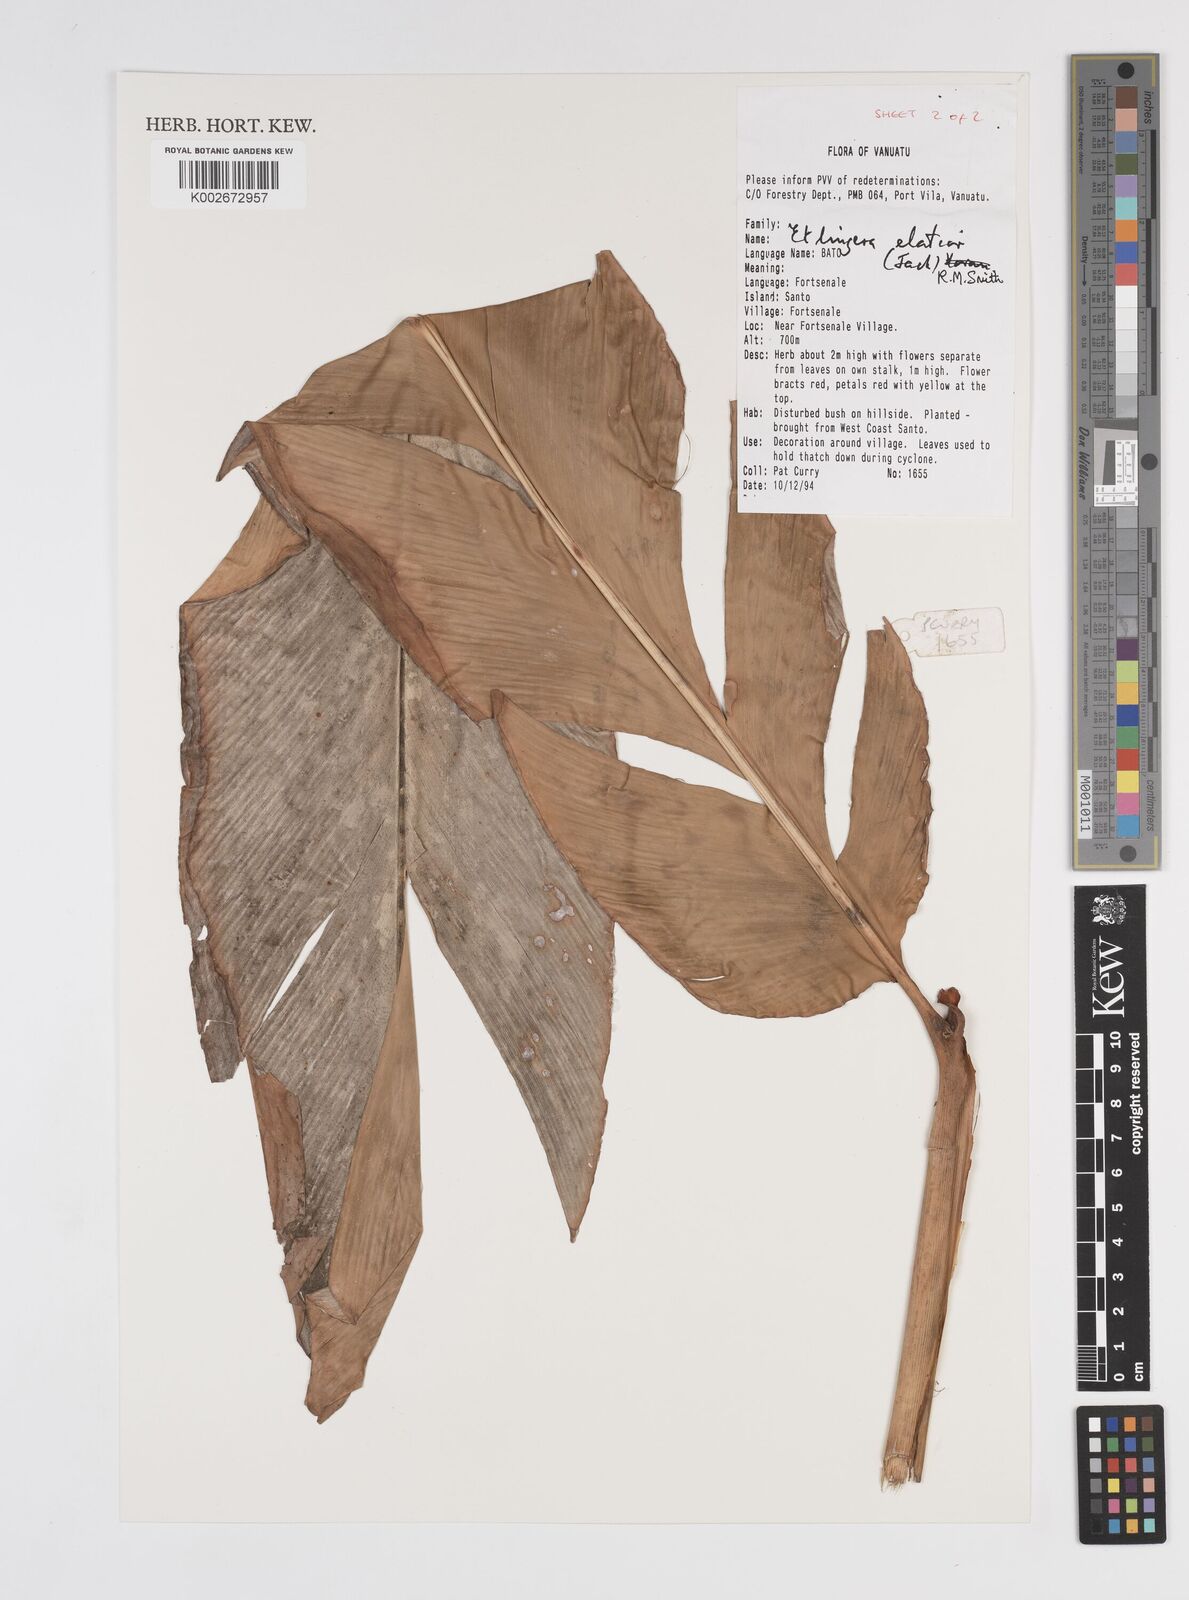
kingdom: Plantae
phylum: Tracheophyta
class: Liliopsida
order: Zingiberales
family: Zingiberaceae
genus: Etlingera
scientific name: Etlingera elatior
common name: Philippine waxflower
